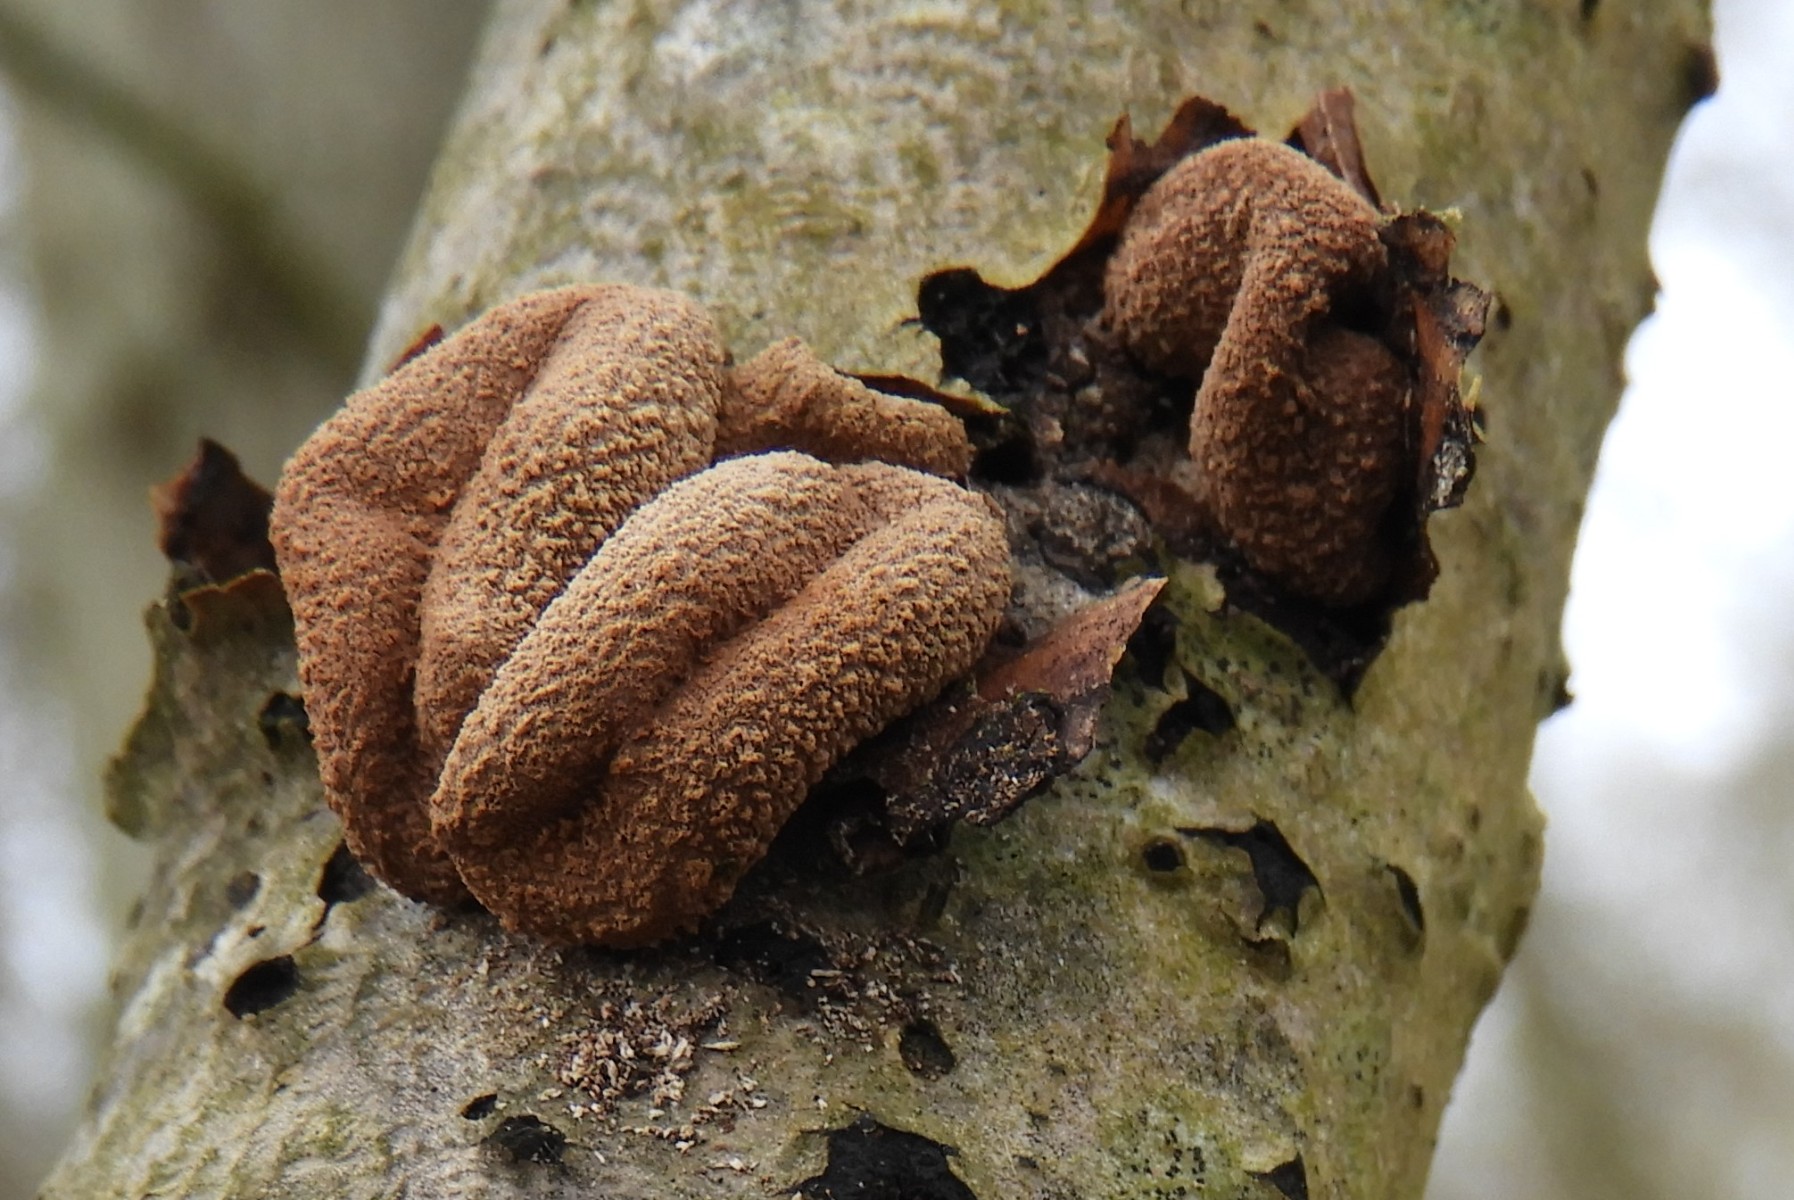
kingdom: Fungi
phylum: Ascomycota
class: Leotiomycetes
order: Helotiales
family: Cenangiaceae
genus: Encoelia
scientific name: Encoelia furfuracea
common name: hassel-læderskive
